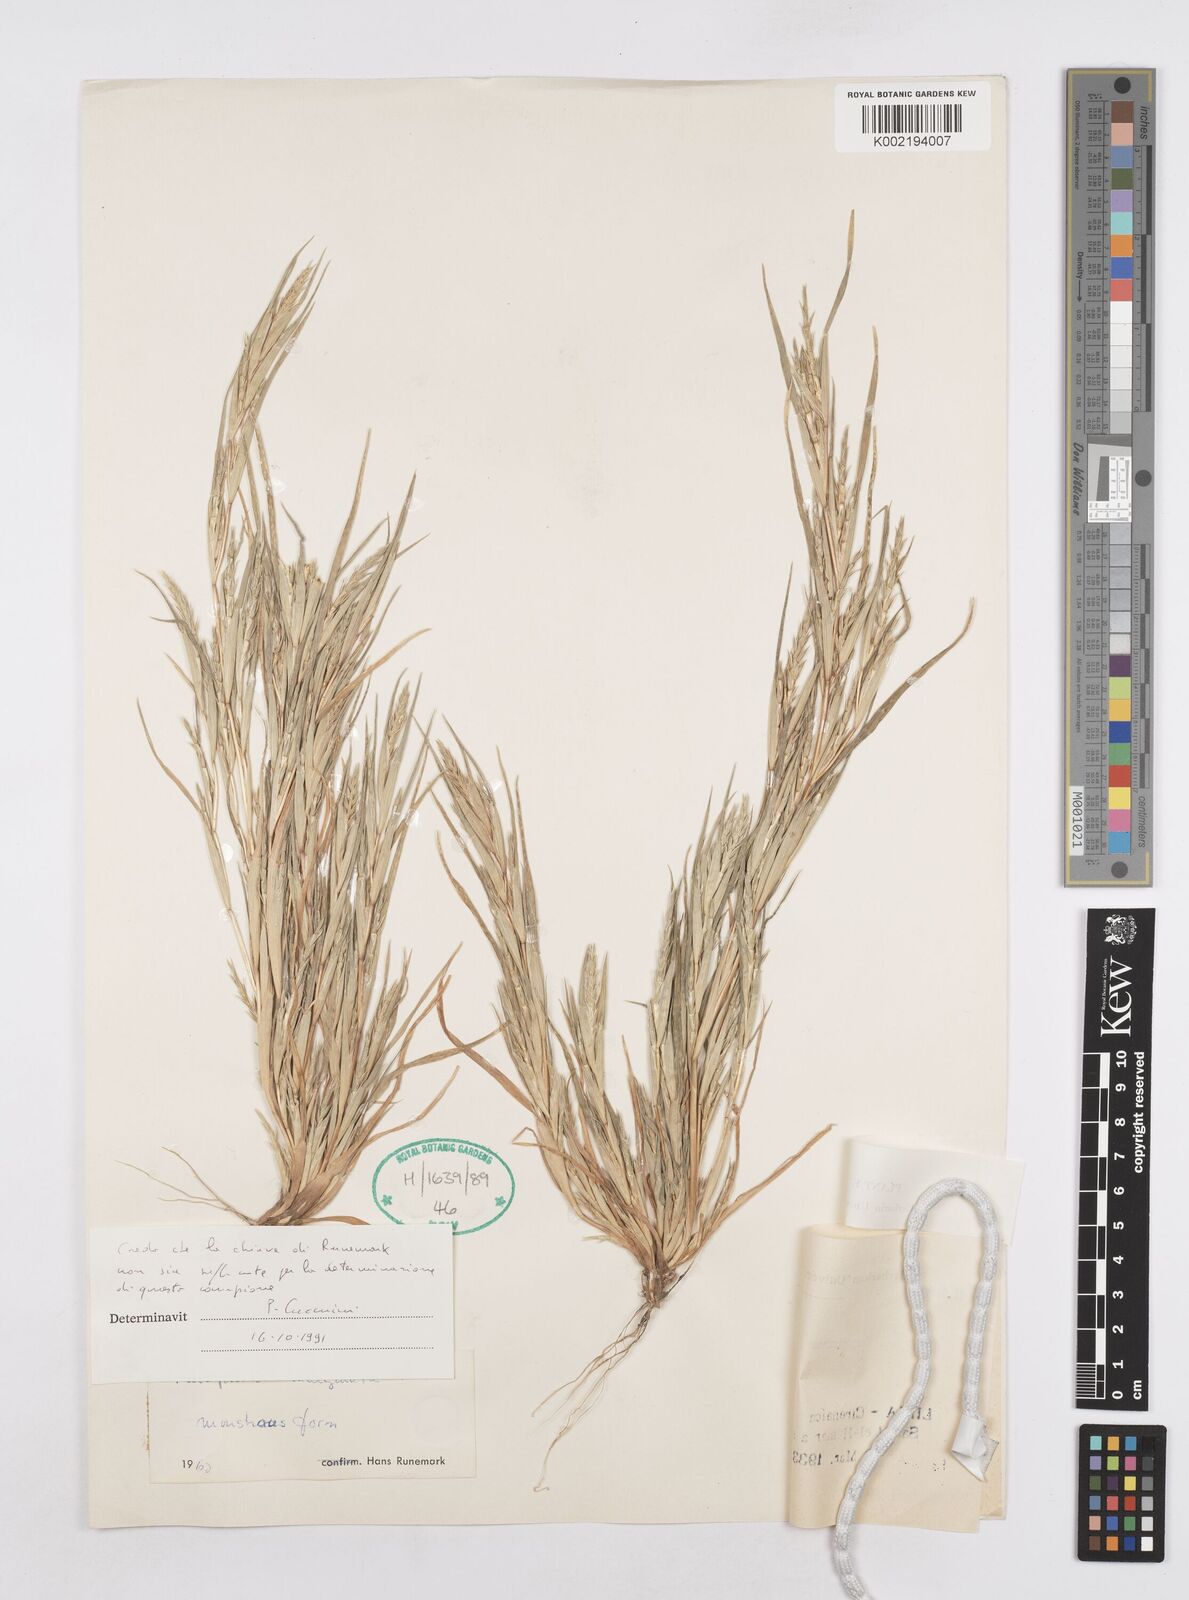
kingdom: Plantae
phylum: Tracheophyta
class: Liliopsida
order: Poales
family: Poaceae
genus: Parapholis
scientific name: Parapholis marginata
